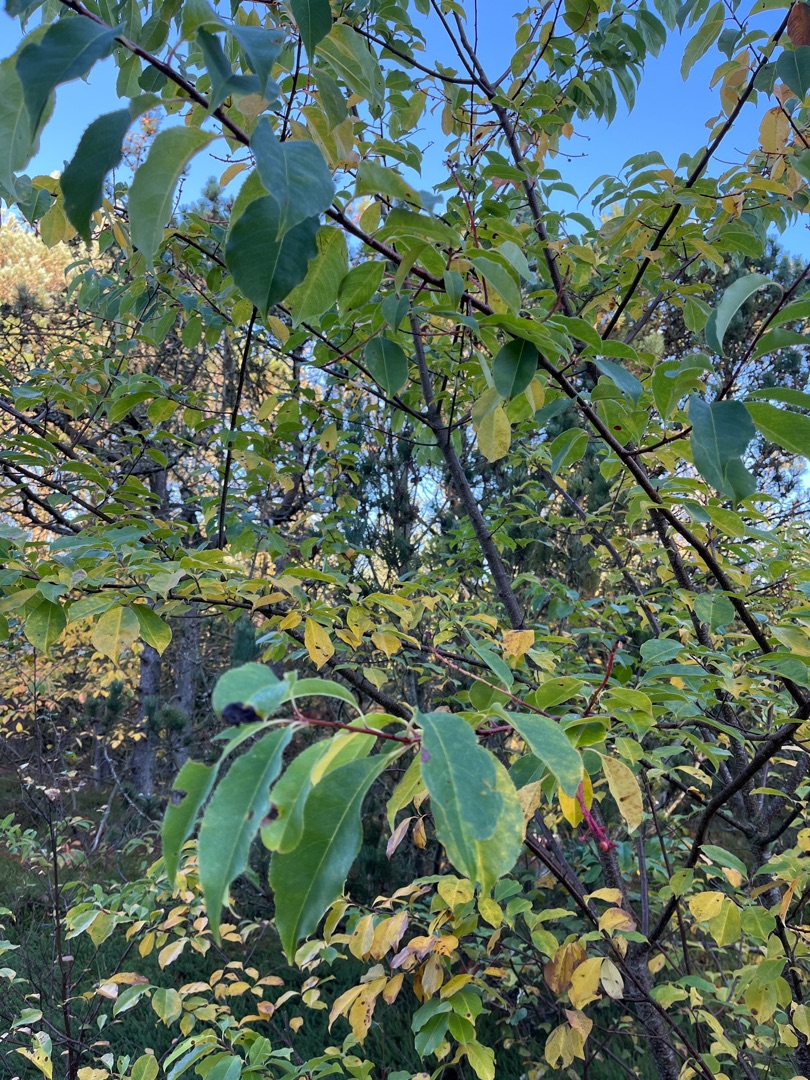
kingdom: Plantae
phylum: Tracheophyta
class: Magnoliopsida
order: Rosales
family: Rosaceae
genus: Prunus
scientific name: Prunus serotina
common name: Glansbladet hæg
